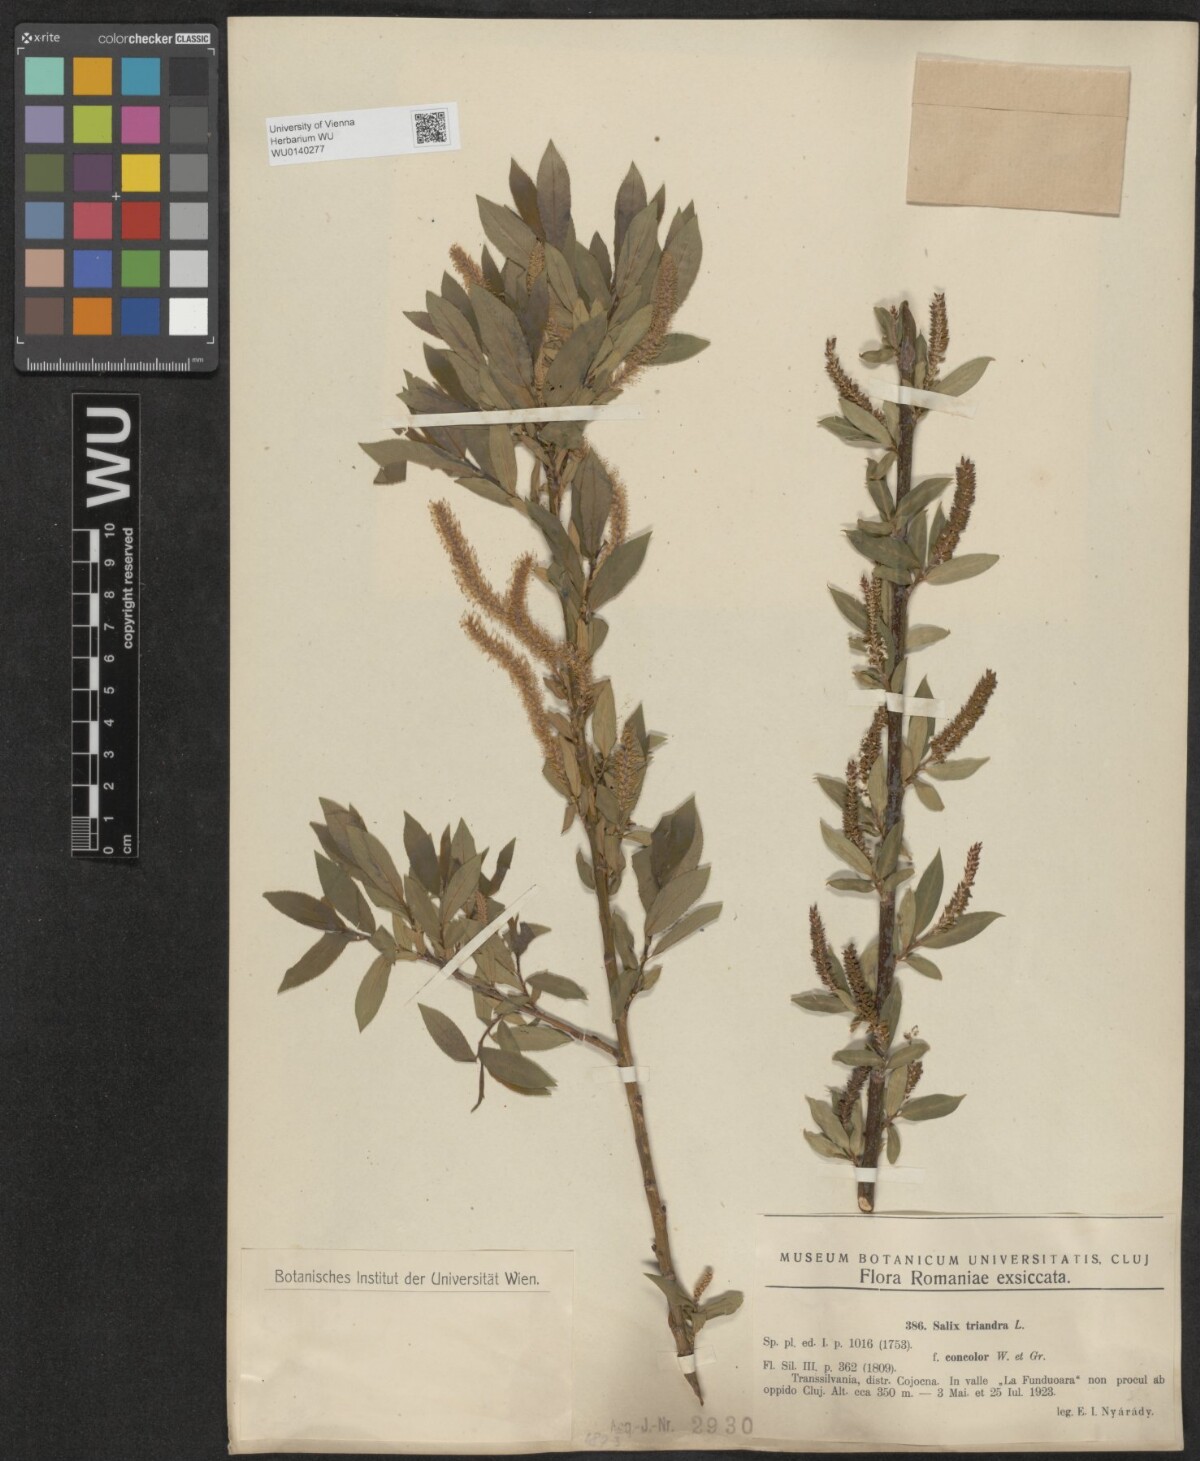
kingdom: Plantae
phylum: Tracheophyta
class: Magnoliopsida
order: Malpighiales
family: Salicaceae
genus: Salix
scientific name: Salix triandra
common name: Almond willow
